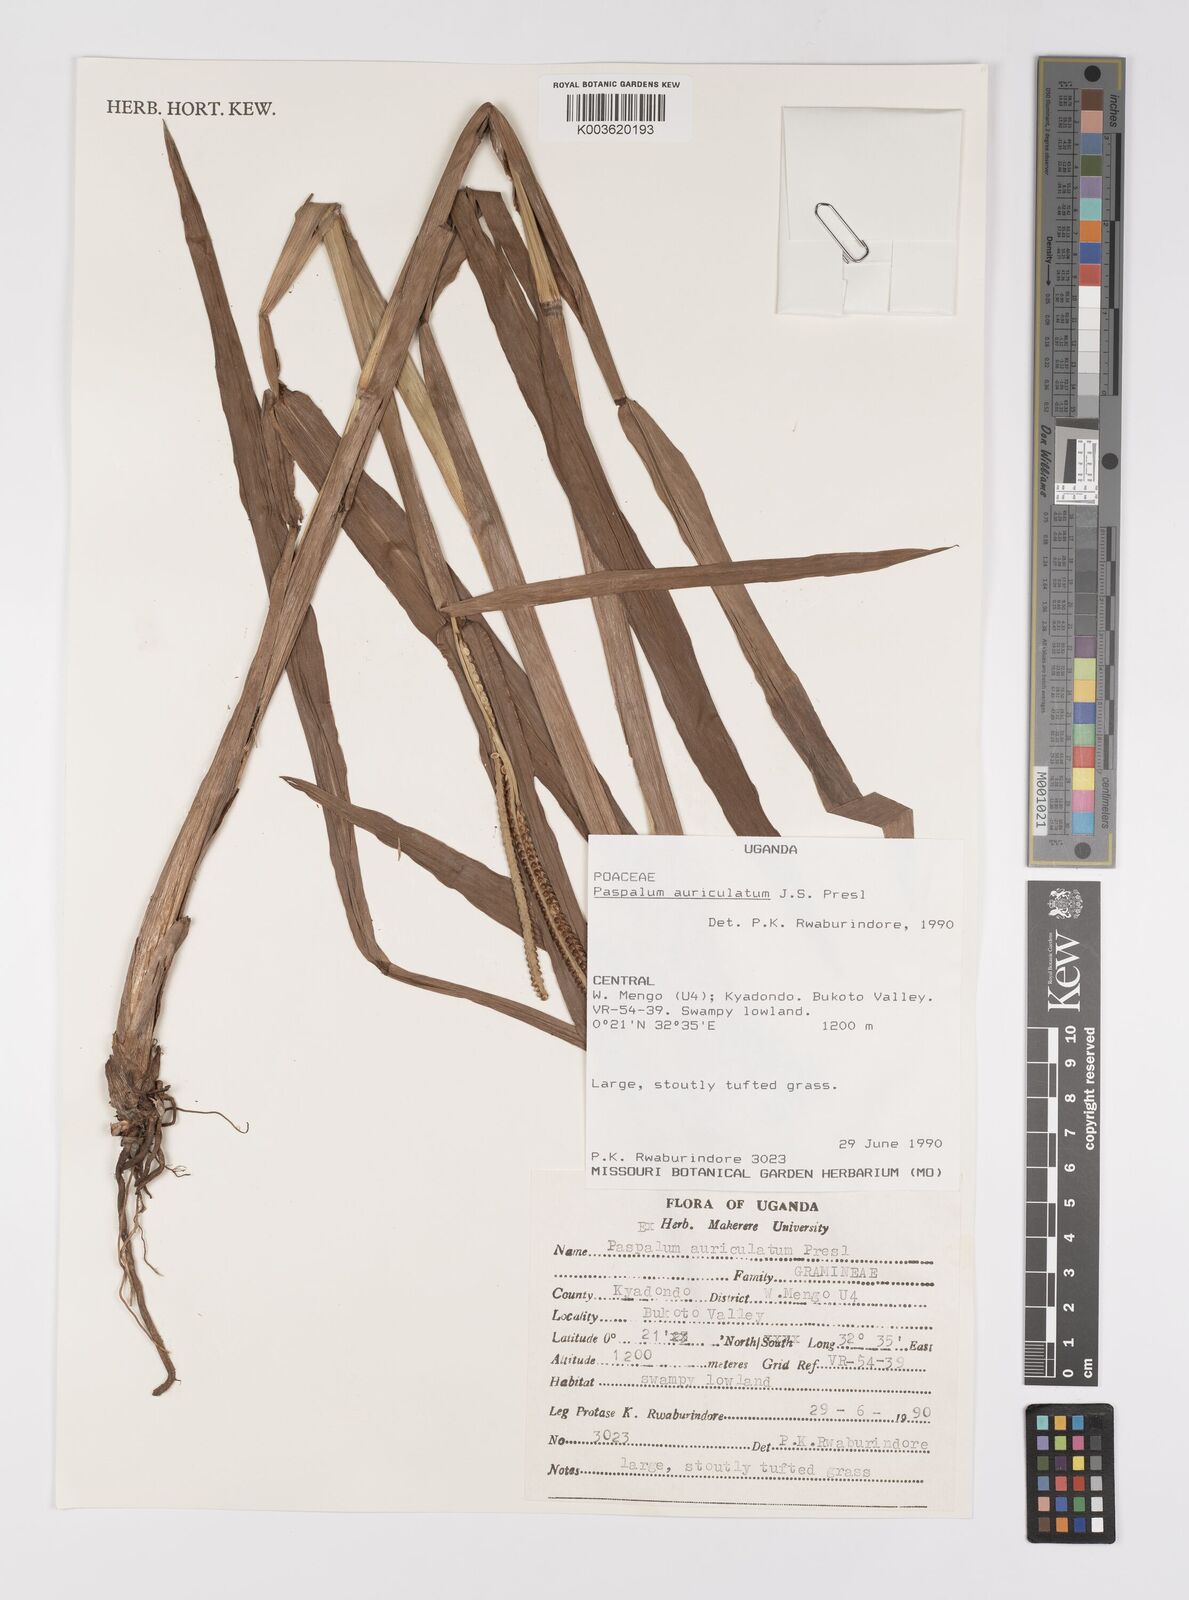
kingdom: Plantae
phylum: Tracheophyta
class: Liliopsida
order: Poales
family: Poaceae
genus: Paspalum
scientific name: Paspalum lamprocaryon
